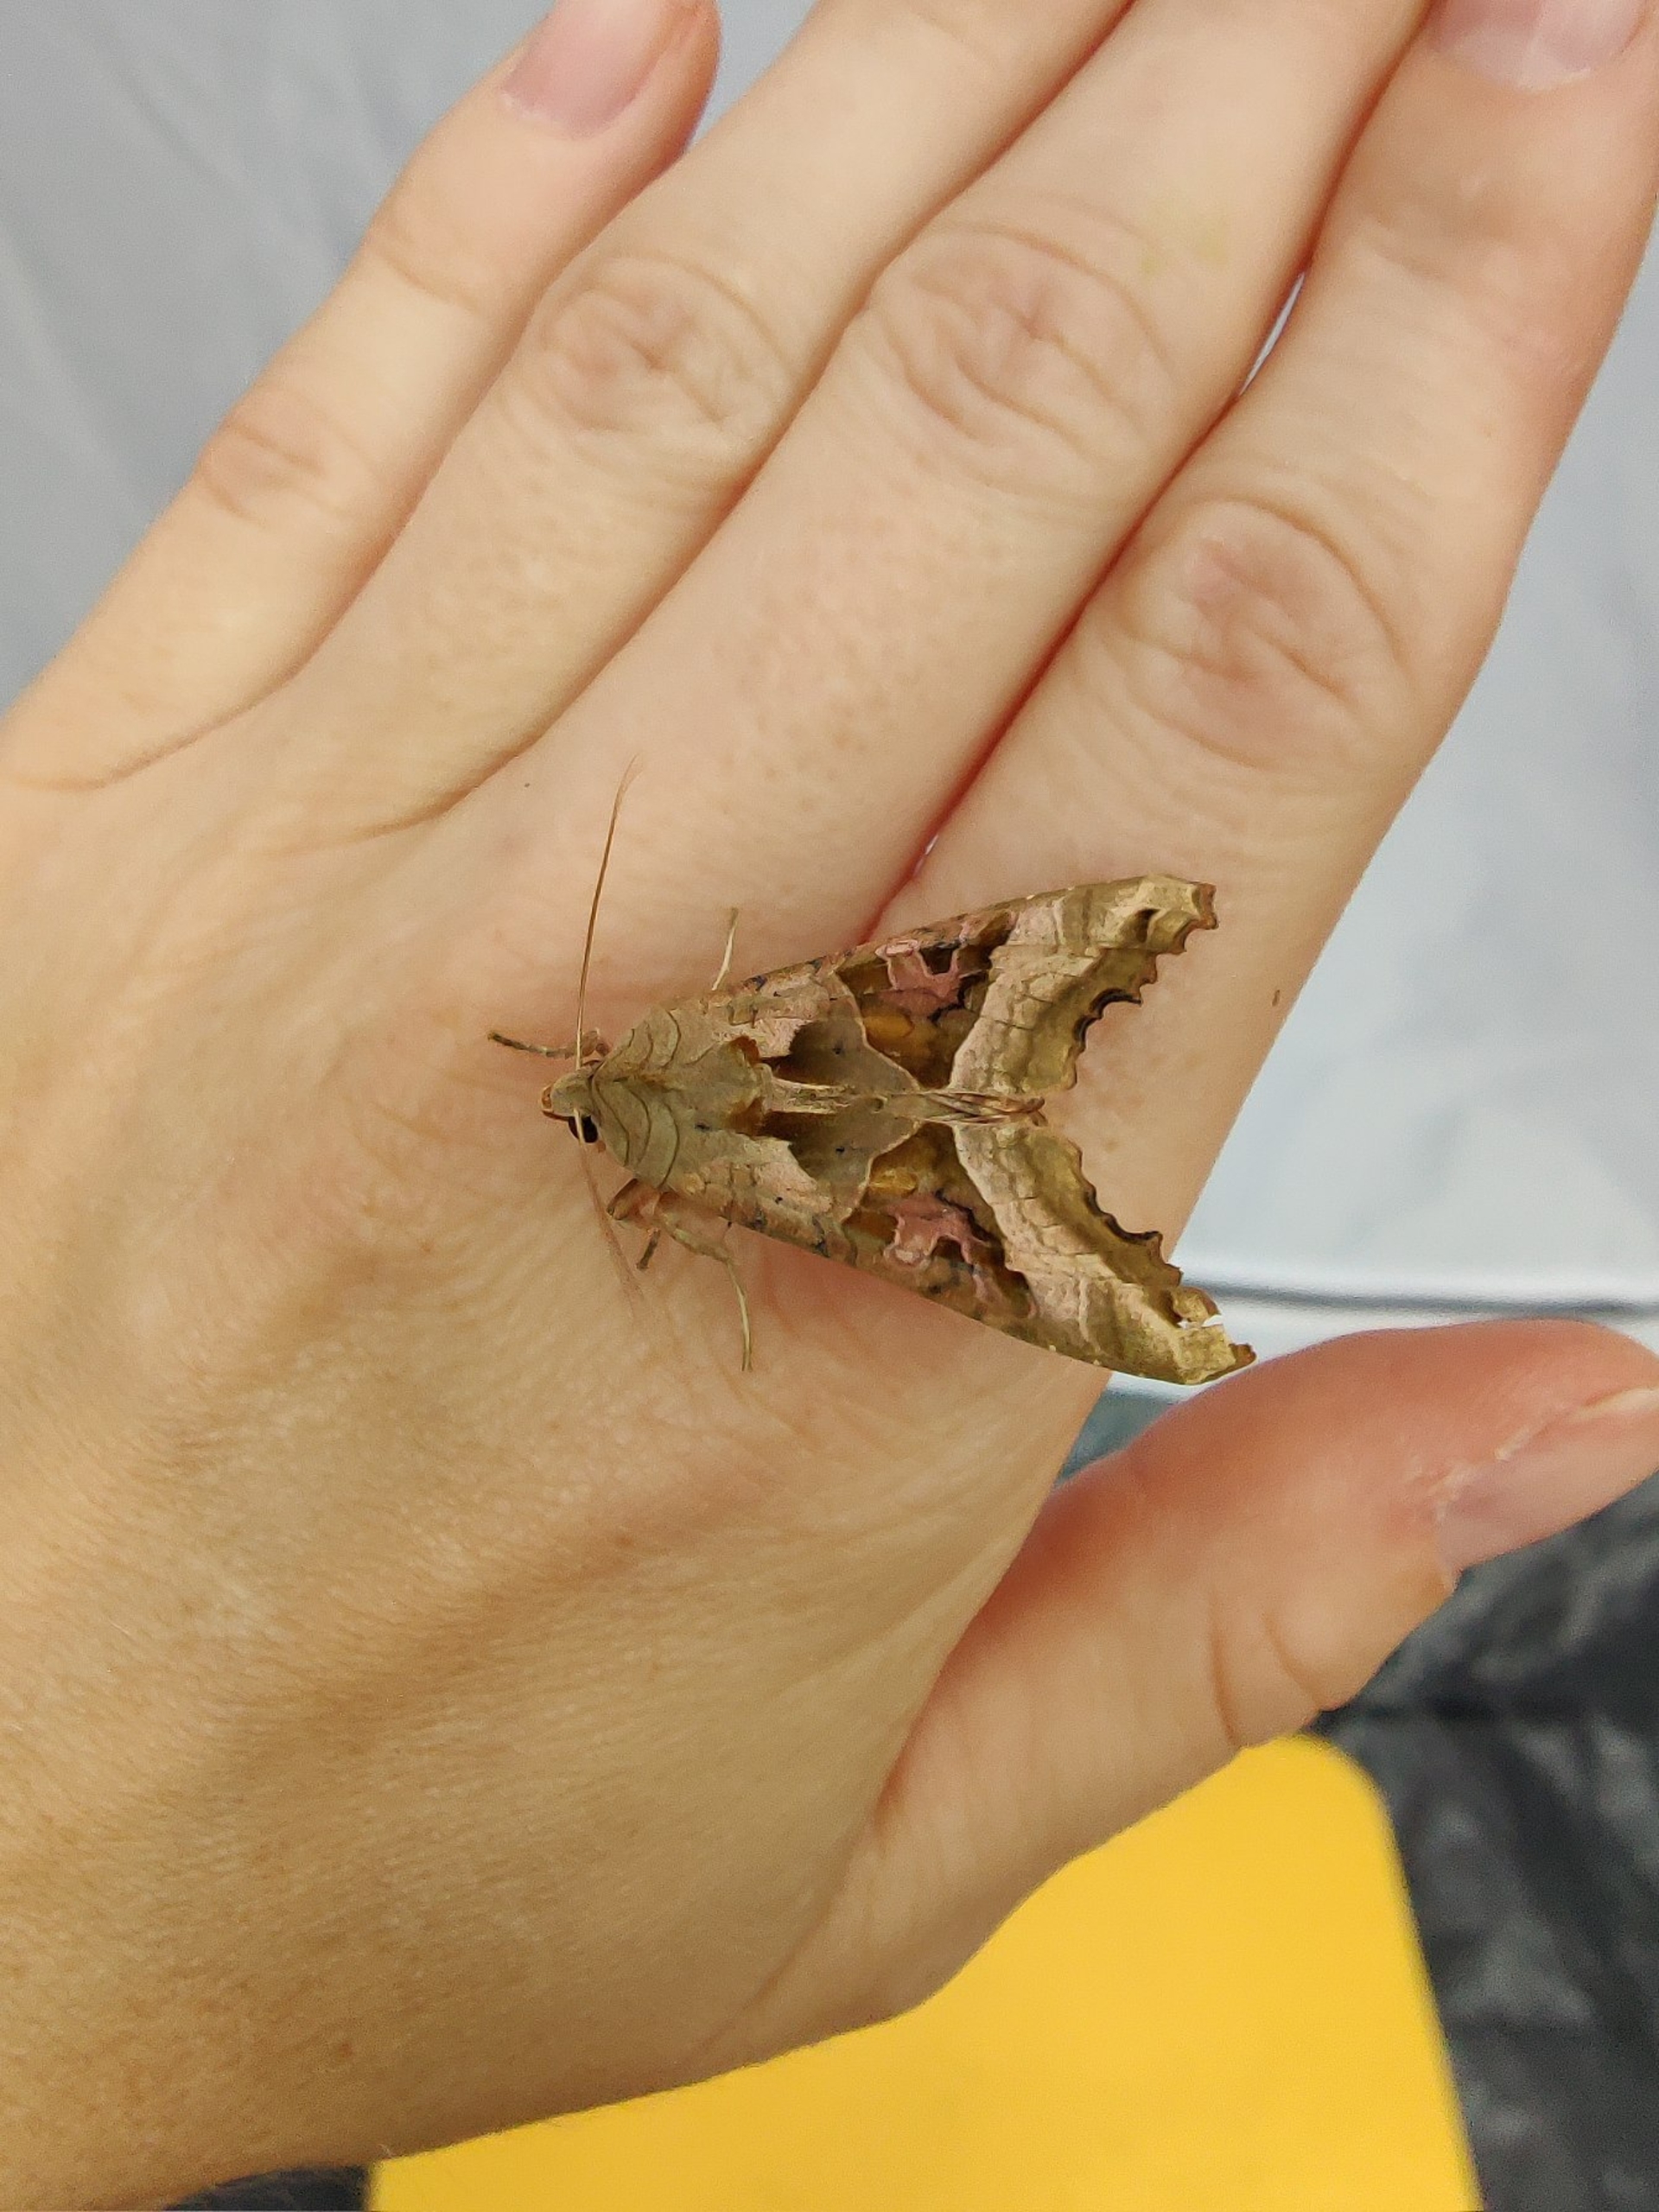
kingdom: Animalia
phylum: Arthropoda
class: Insecta
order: Lepidoptera
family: Noctuidae
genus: Phlogophora
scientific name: Phlogophora meticulosa
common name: Agatugle
